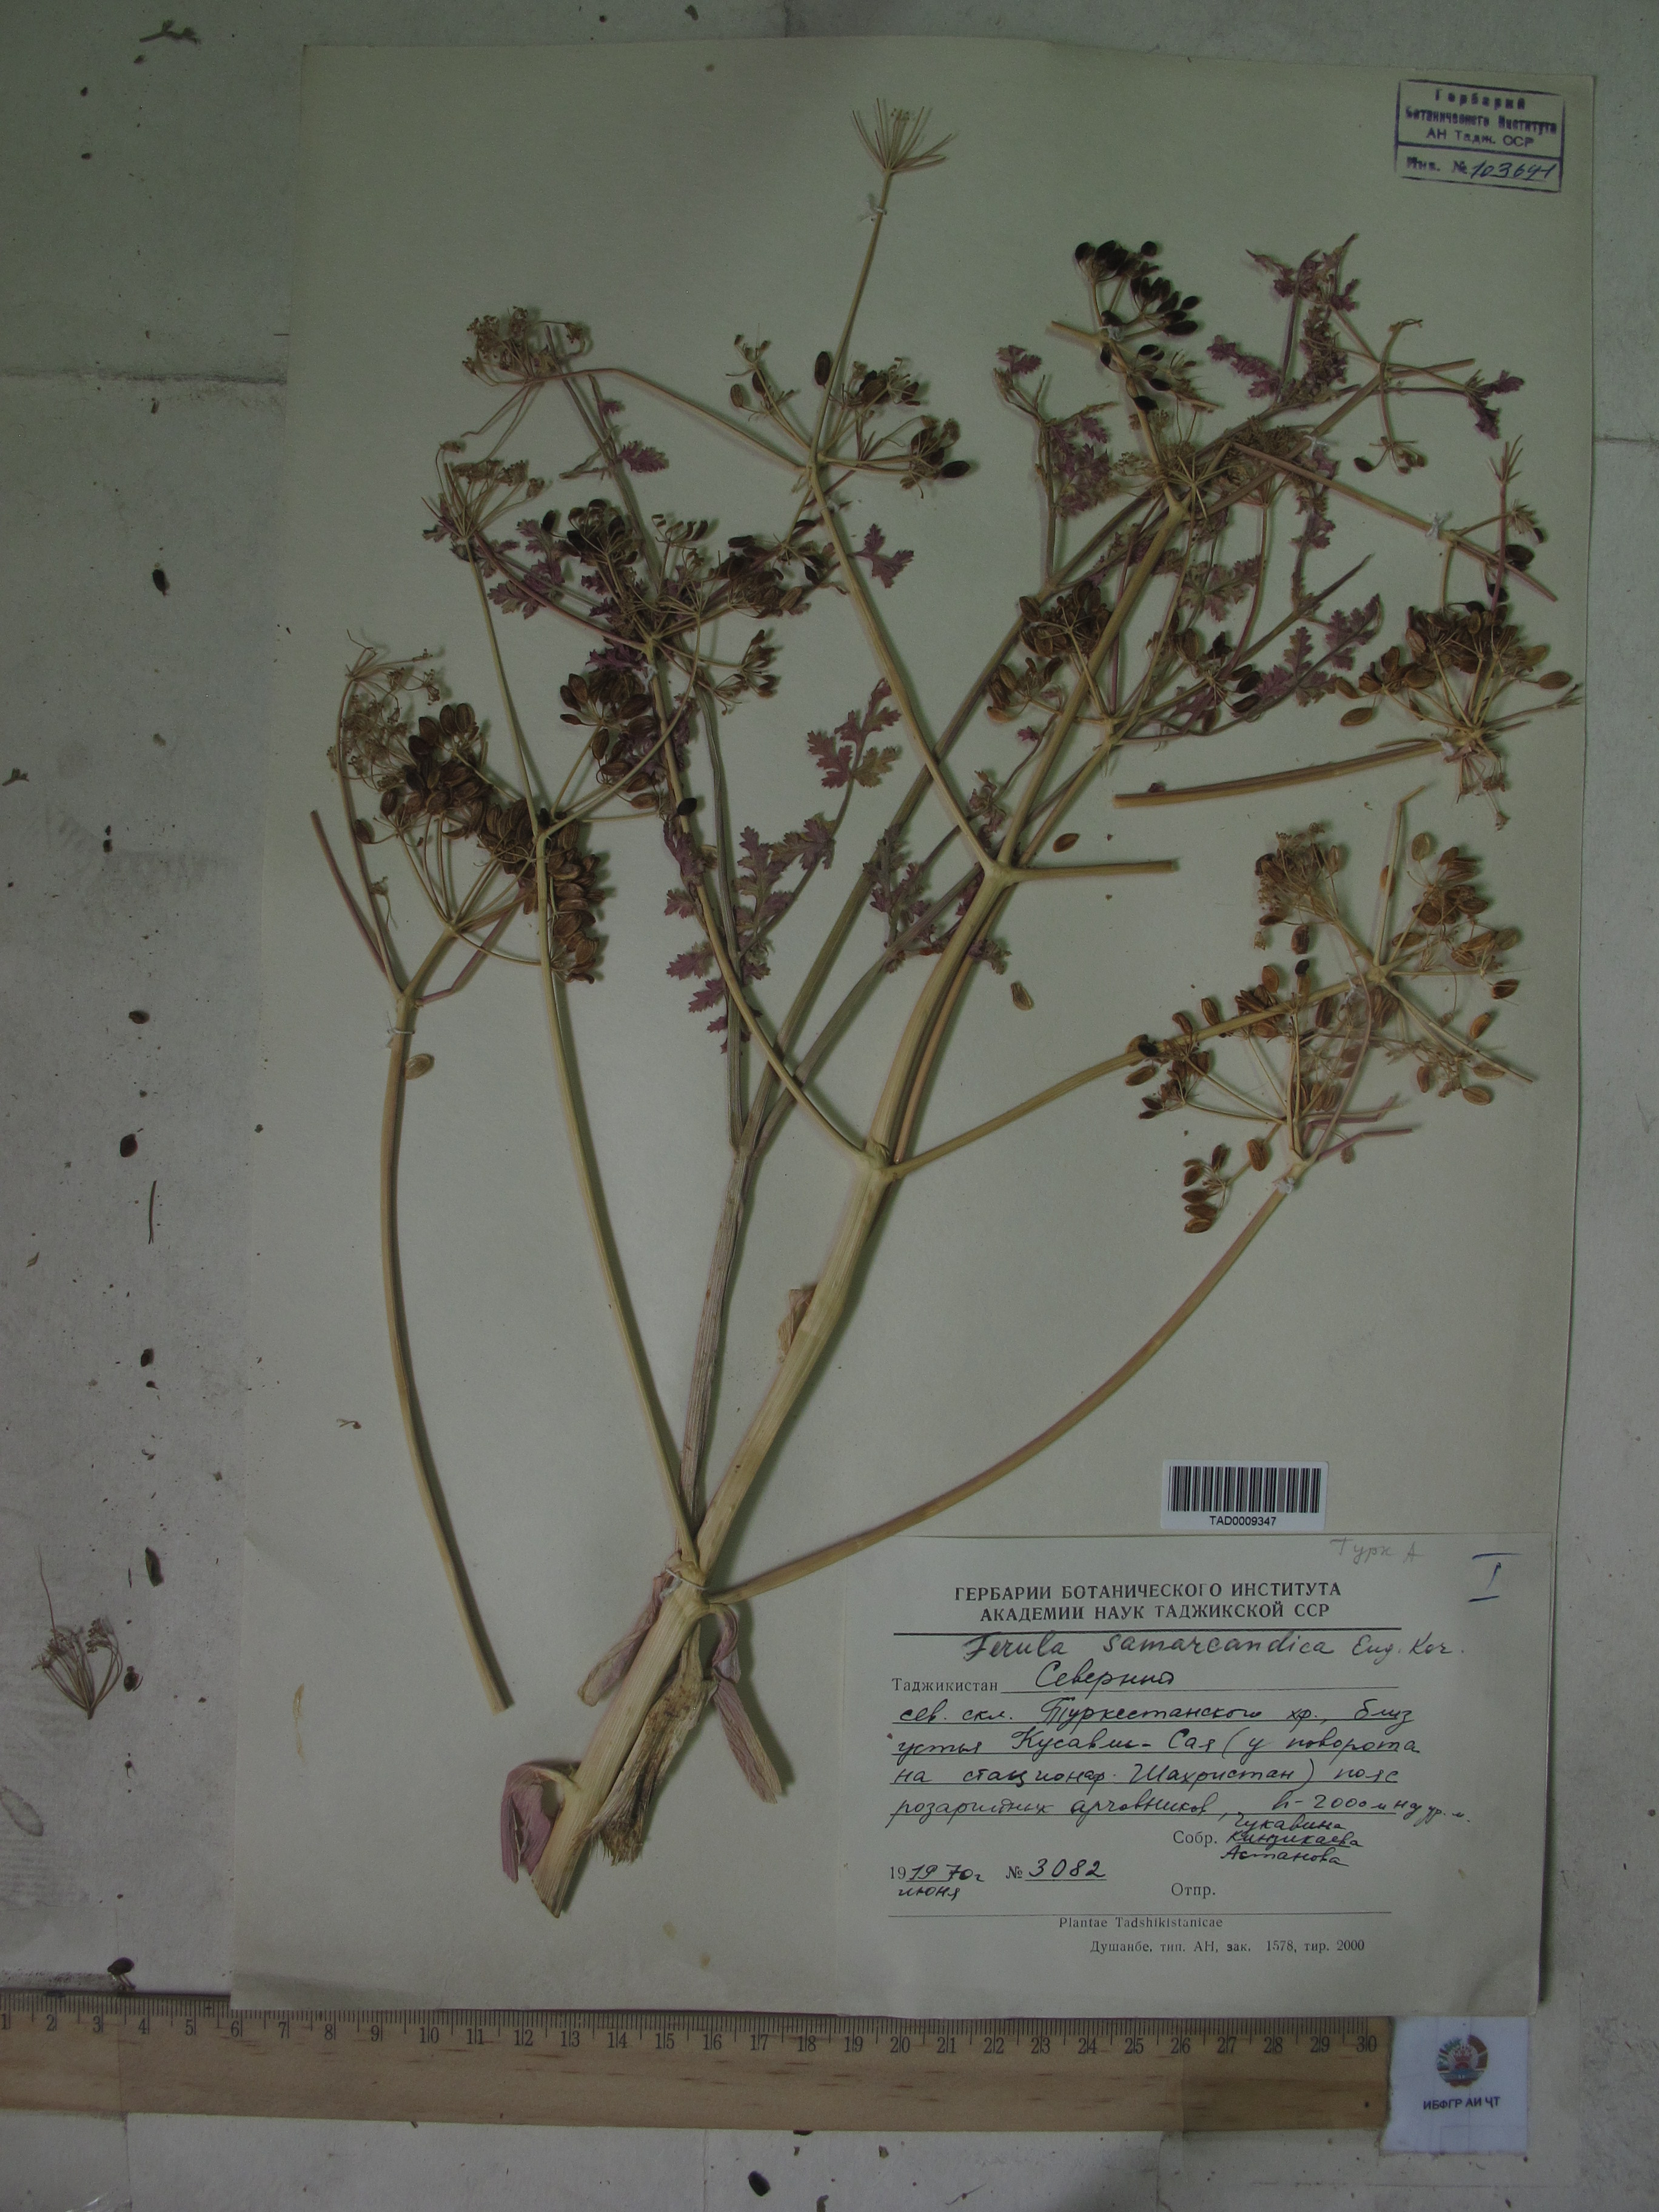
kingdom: Plantae
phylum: Tracheophyta
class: Magnoliopsida
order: Apiales
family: Apiaceae
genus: Ferula
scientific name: Ferula samarkandica
